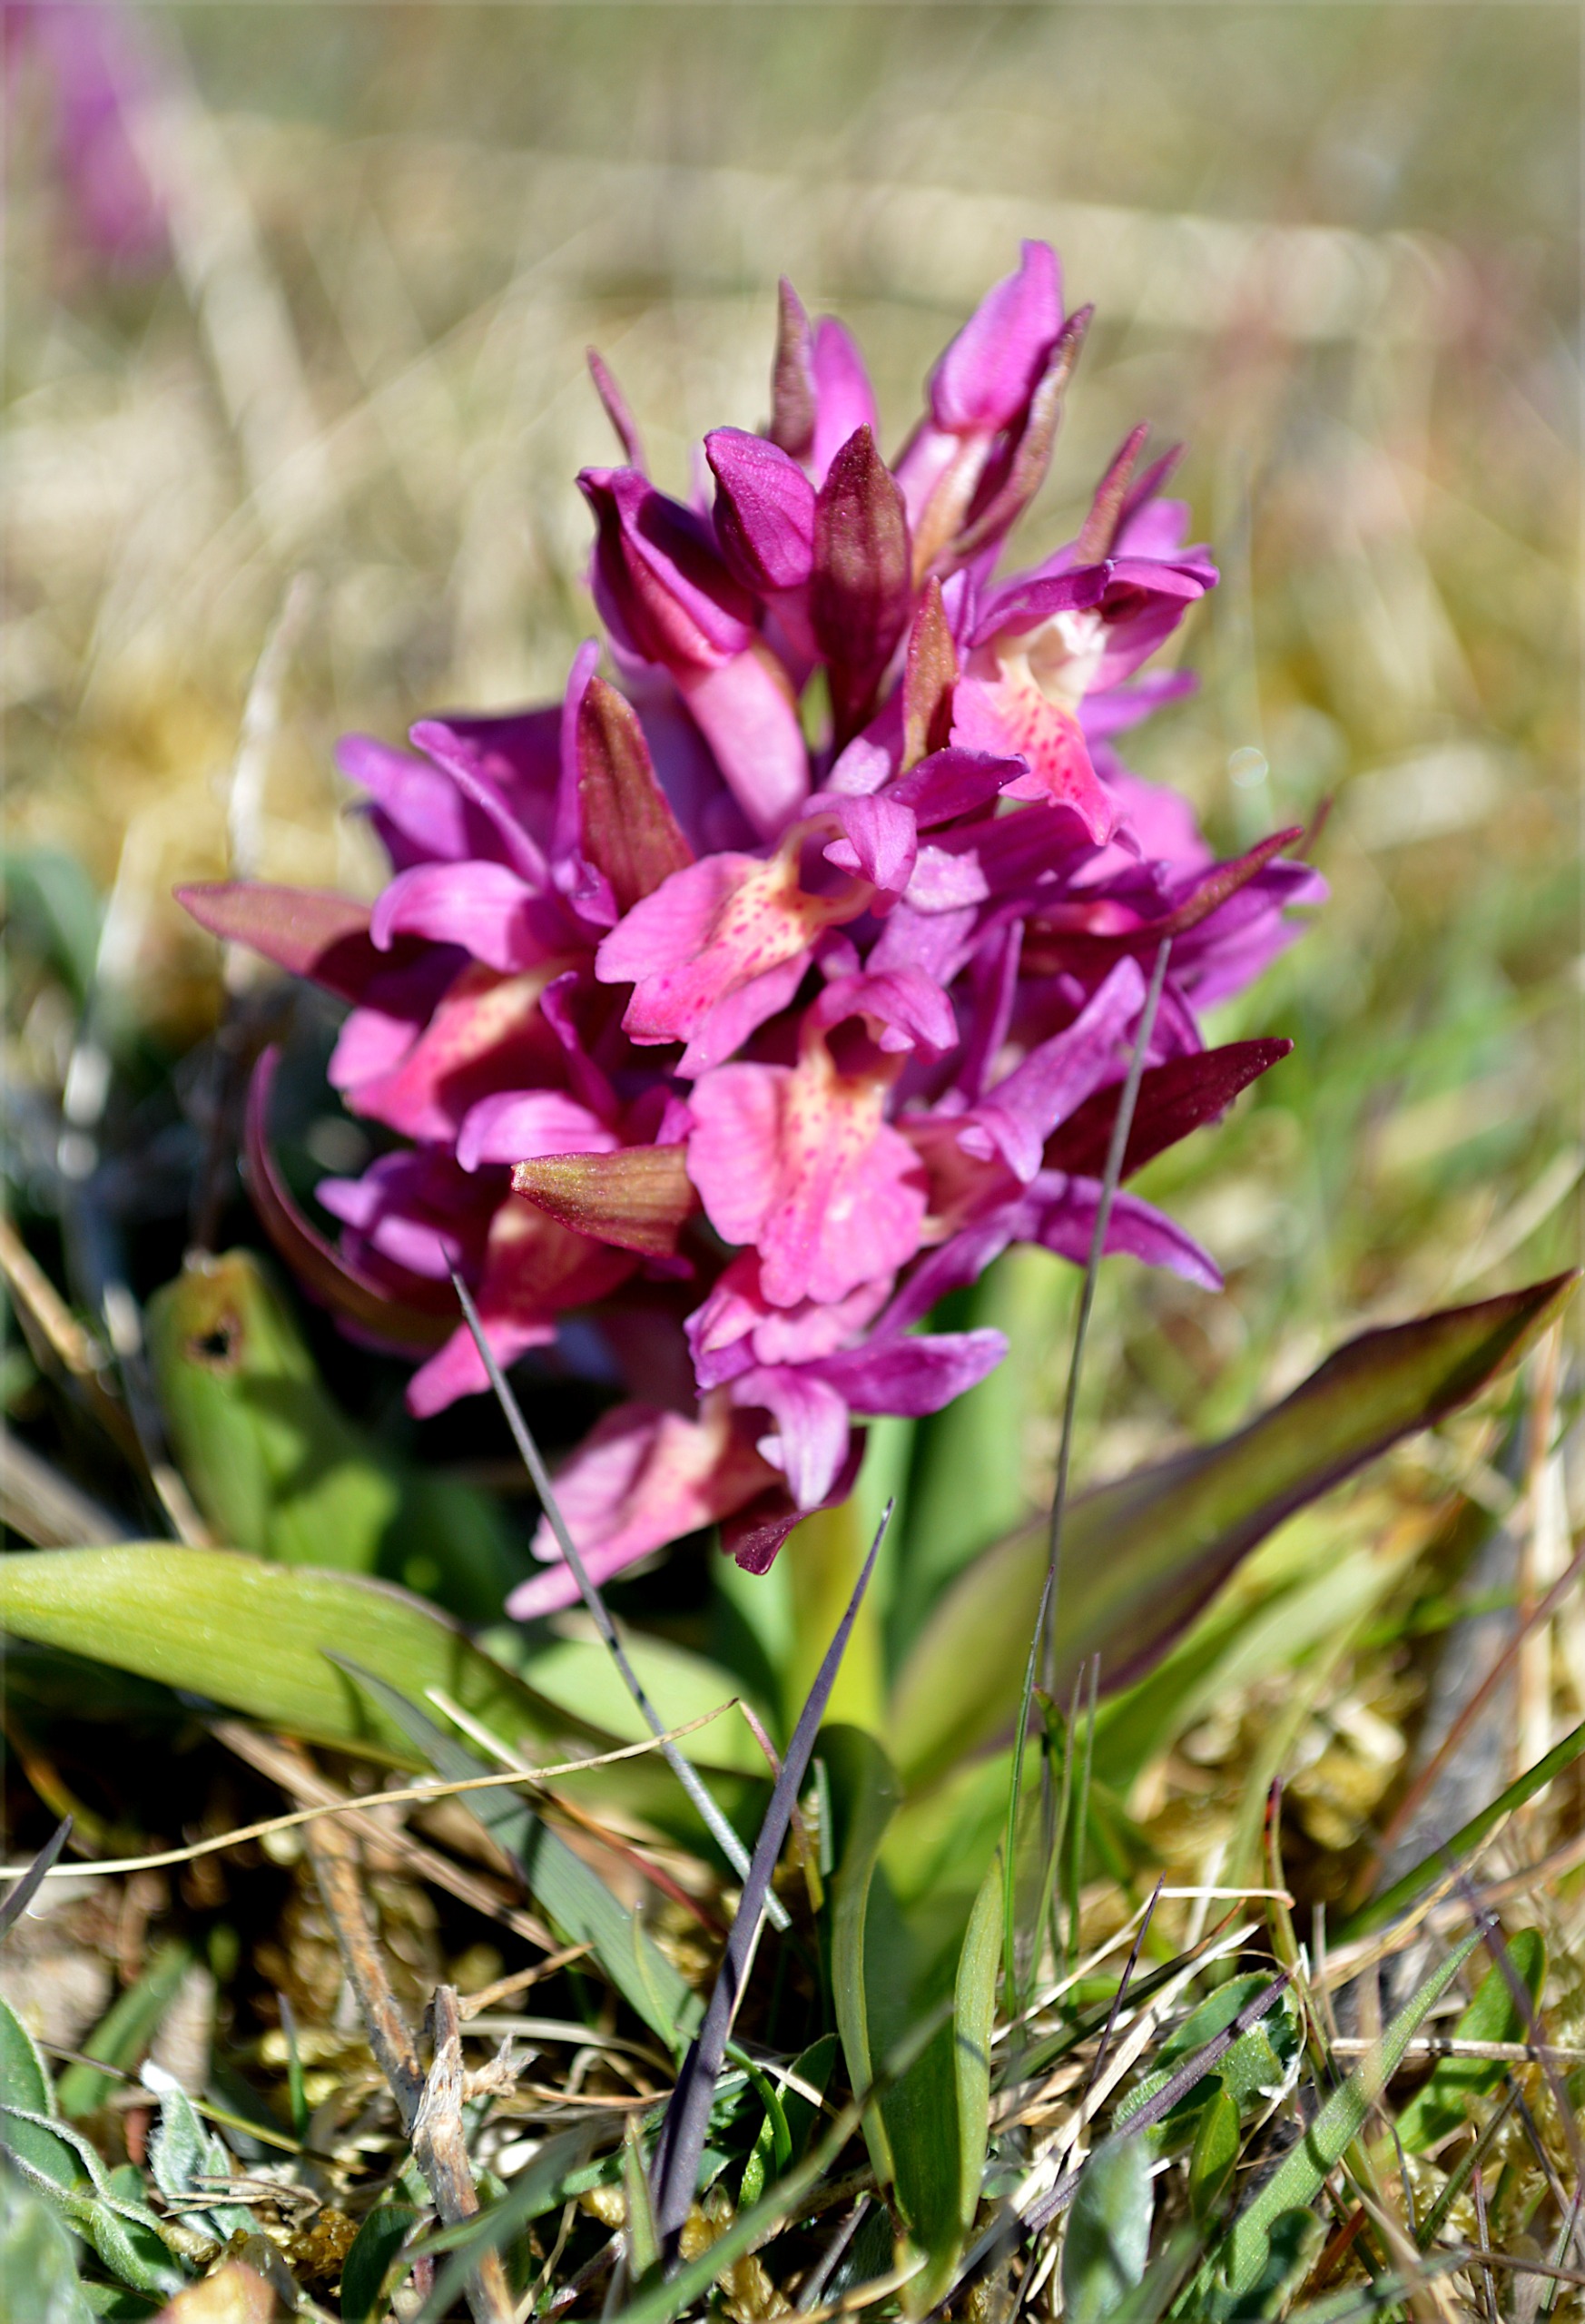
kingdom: Plantae
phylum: Tracheophyta
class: Liliopsida
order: Asparagales
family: Orchidaceae
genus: Dactylorhiza
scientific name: Dactylorhiza sambucina
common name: Hylde-gøgeurt
